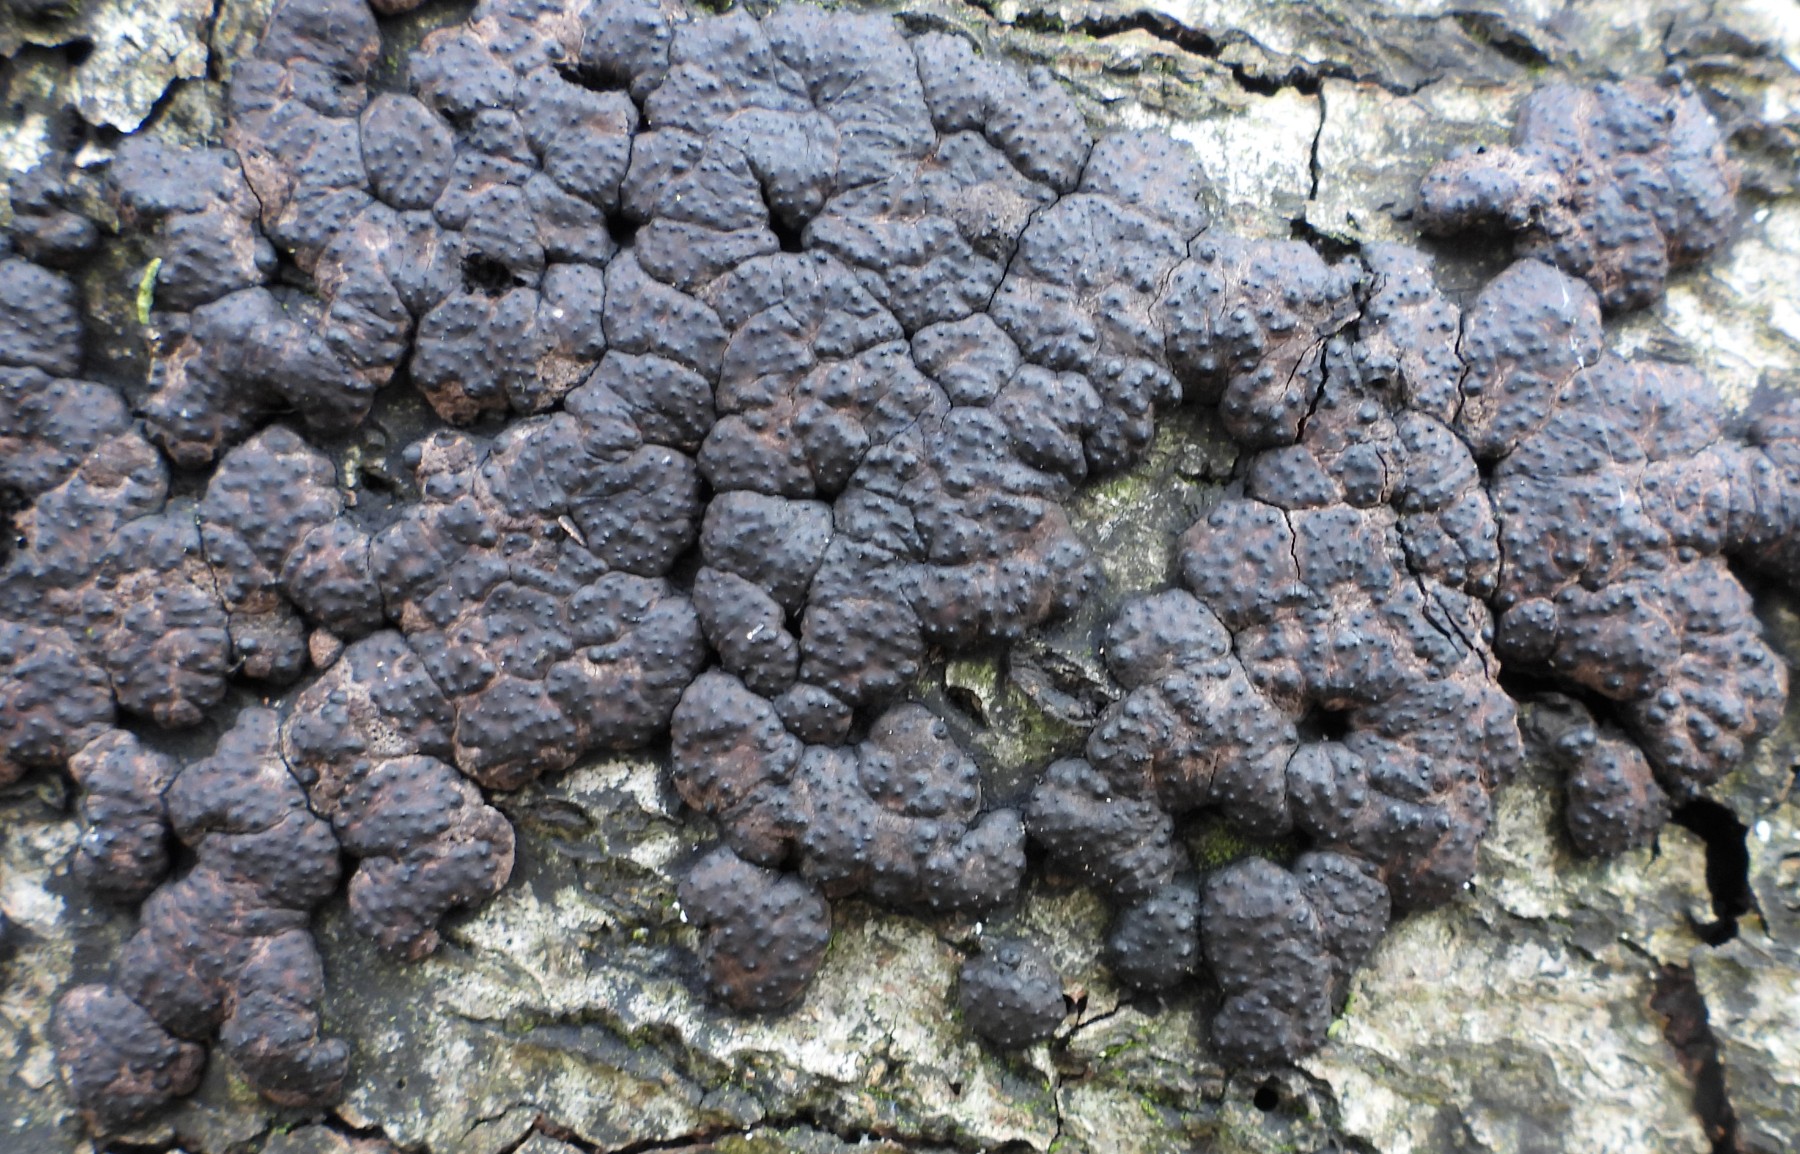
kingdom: Fungi
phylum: Ascomycota
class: Sordariomycetes
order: Xylariales
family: Hypoxylaceae
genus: Jackrogersella
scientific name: Jackrogersella cohaerens
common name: sammenflydende kulbær
